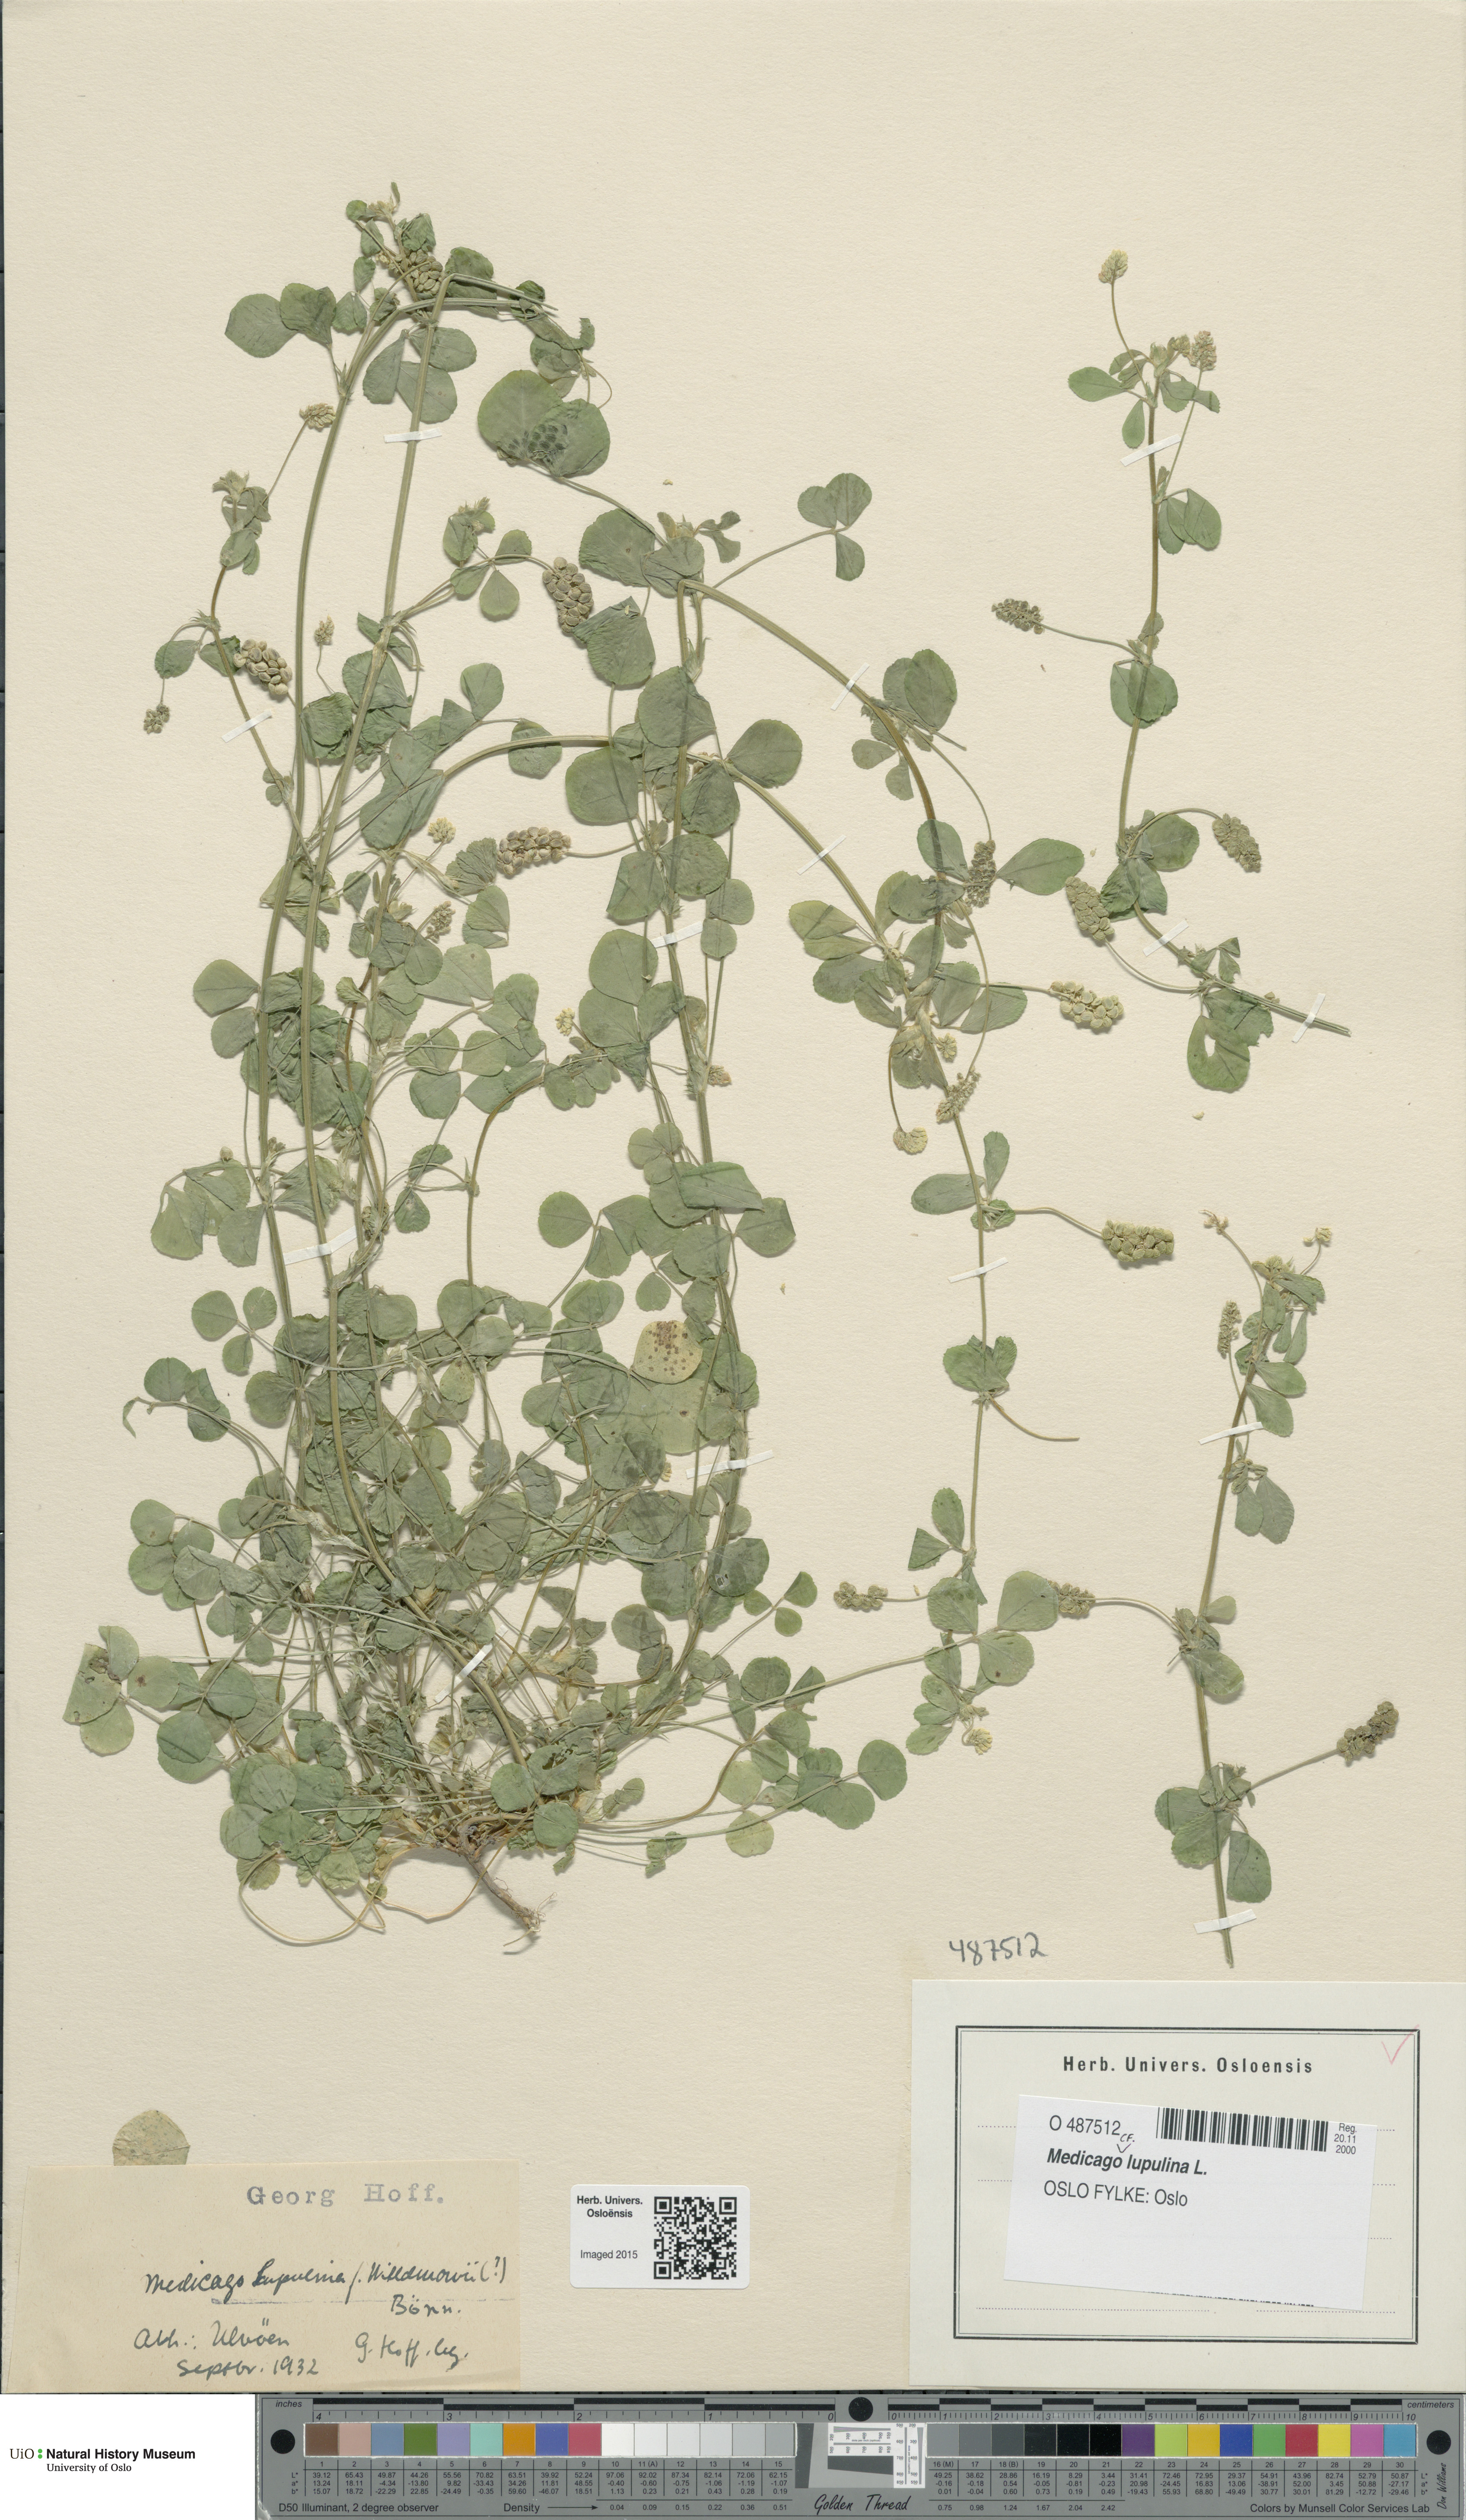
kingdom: Plantae
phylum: Tracheophyta
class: Magnoliopsida
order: Fabales
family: Fabaceae
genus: Medicago
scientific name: Medicago lupulina
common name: Black medick
